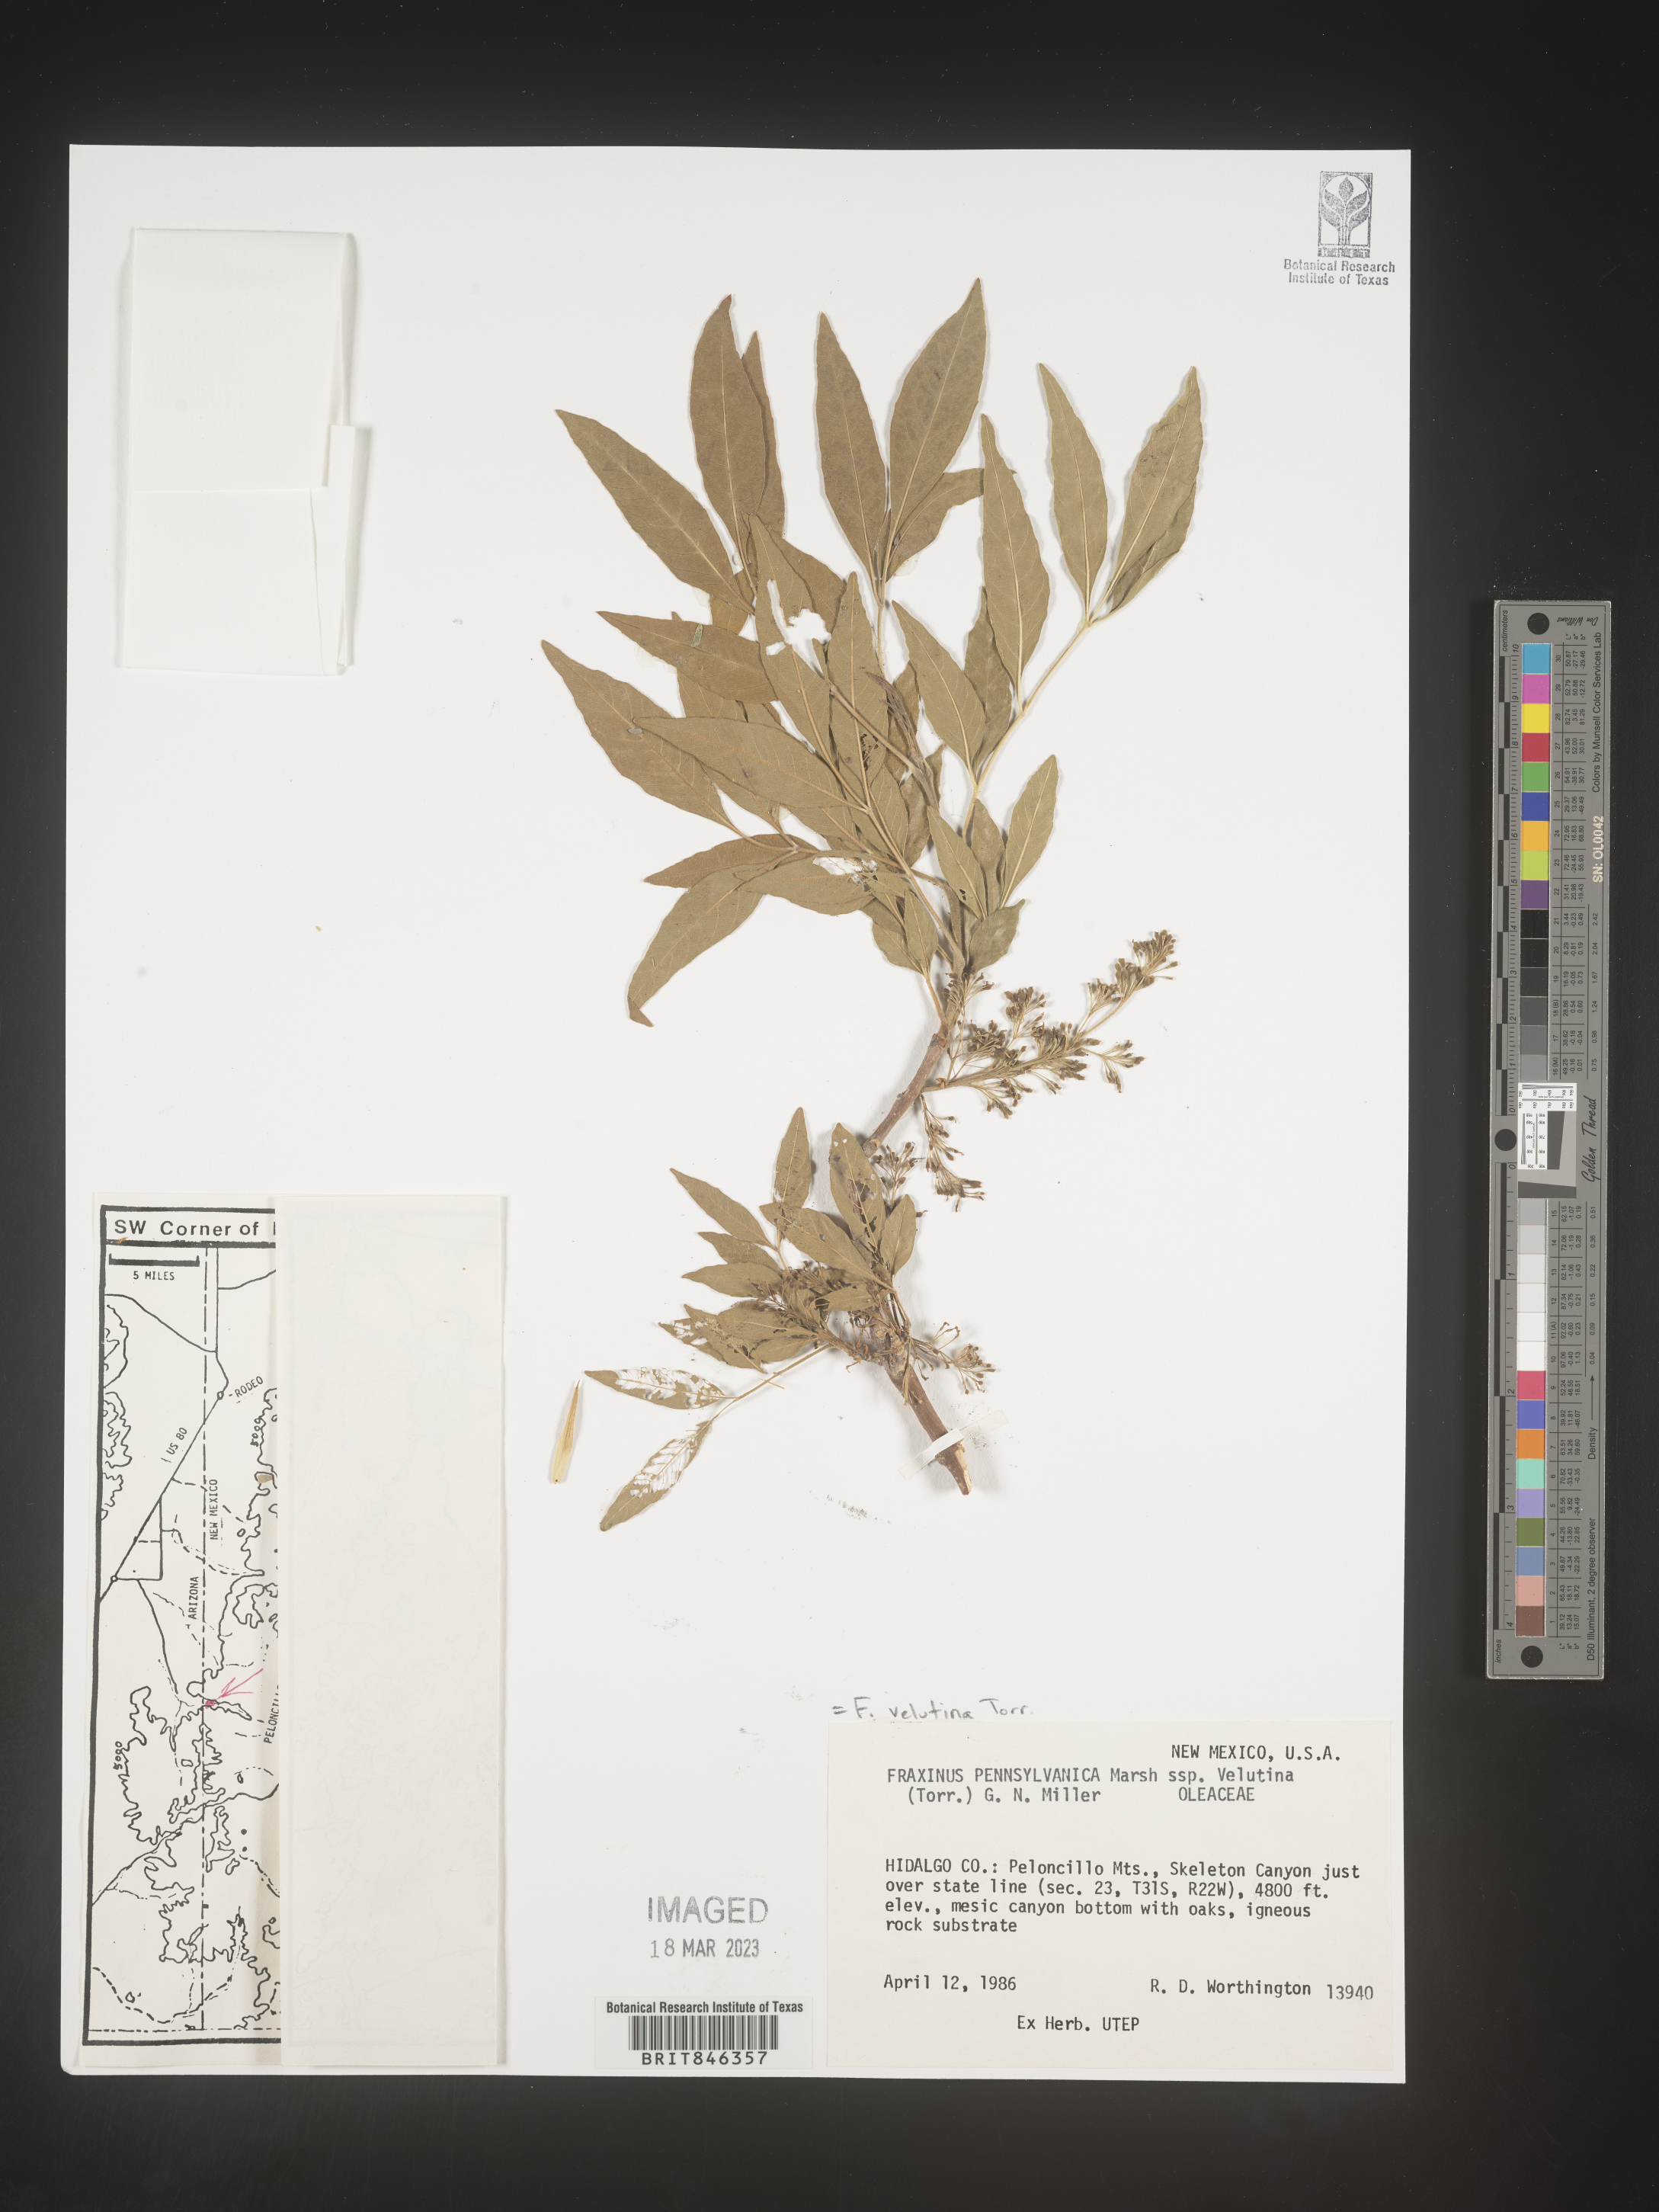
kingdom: Plantae
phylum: Tracheophyta
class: Magnoliopsida
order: Lamiales
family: Oleaceae
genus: Fraxinus
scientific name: Fraxinus velutina
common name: Arizon ash
